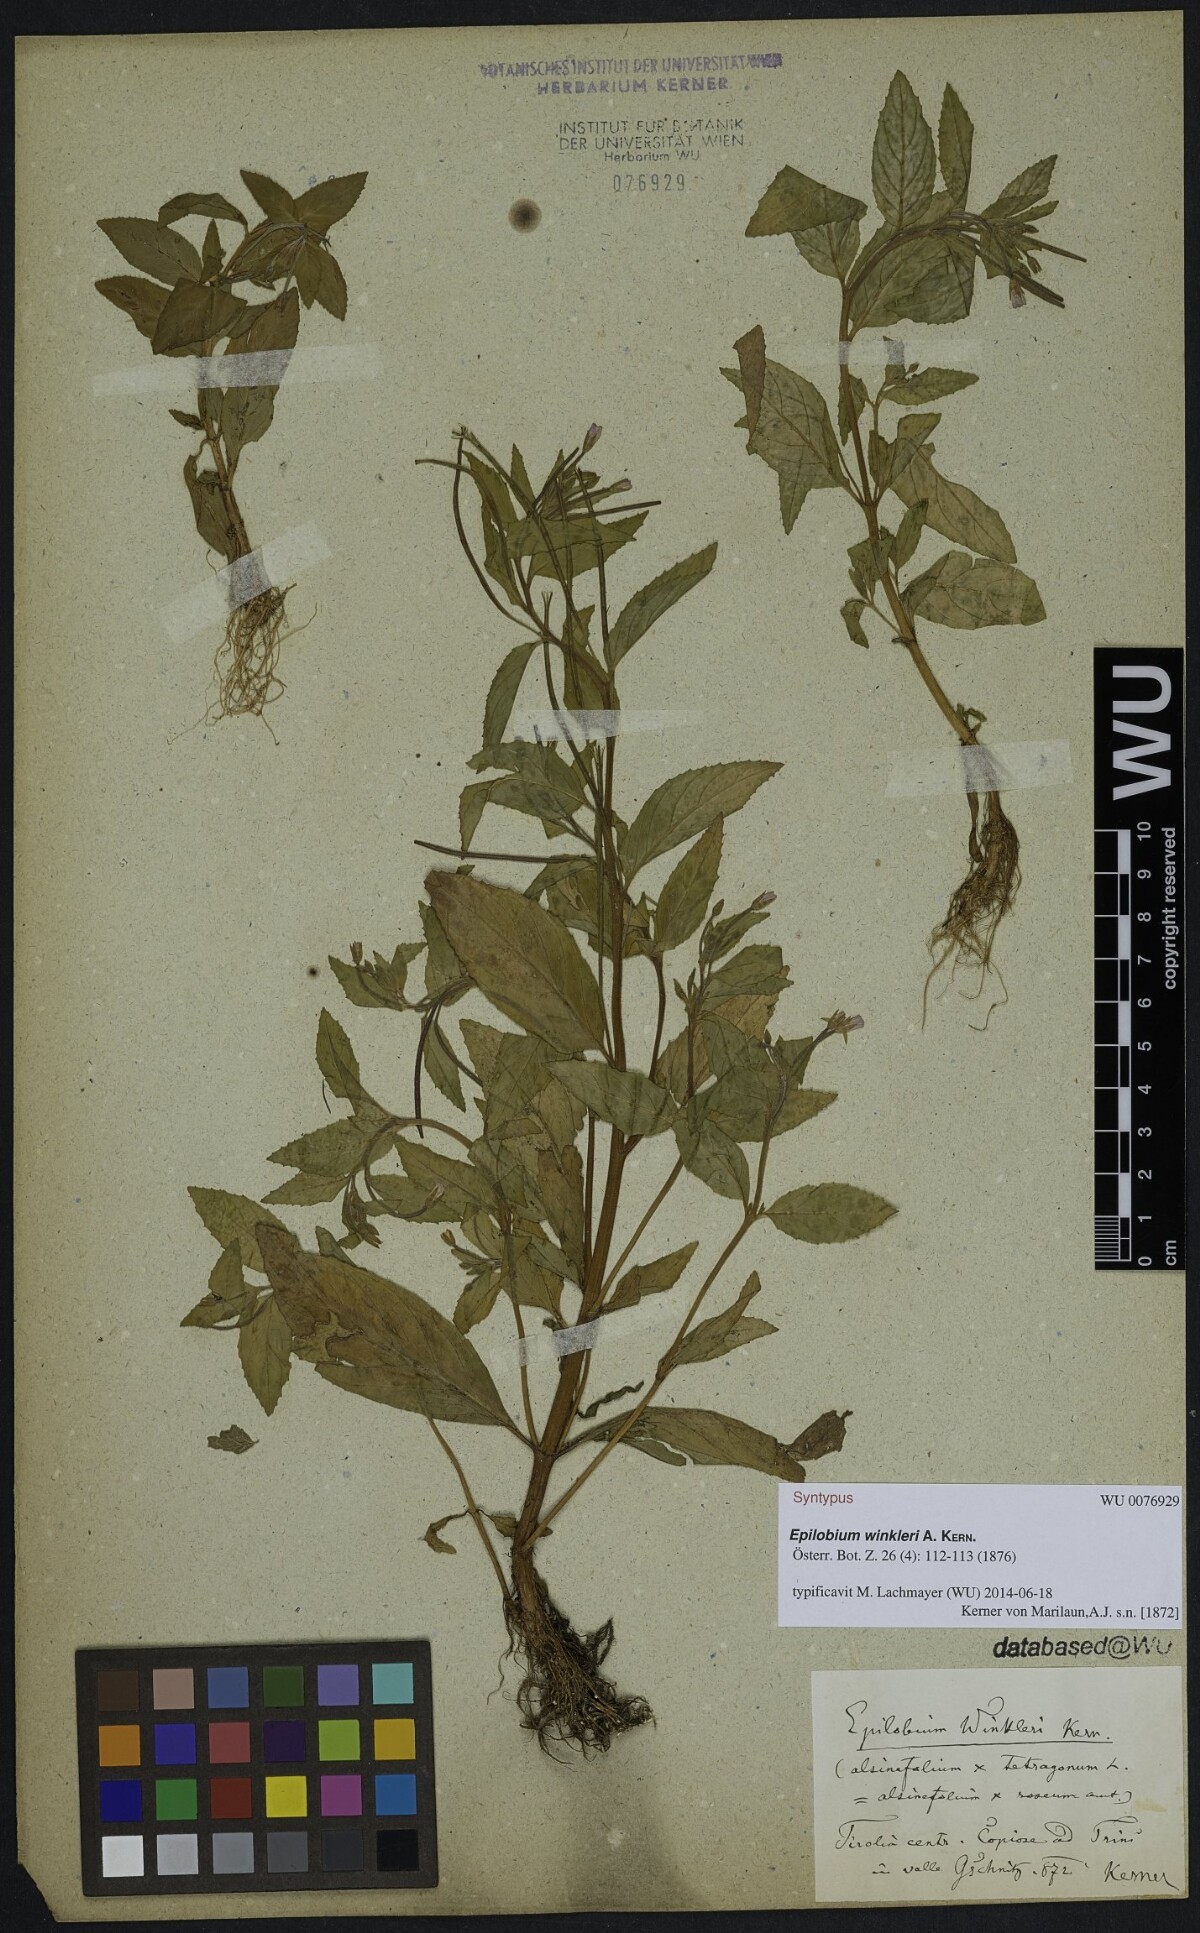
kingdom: Plantae
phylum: Tracheophyta
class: Magnoliopsida
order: Myrtales
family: Onagraceae
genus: Epilobium
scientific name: Epilobium winkleri
